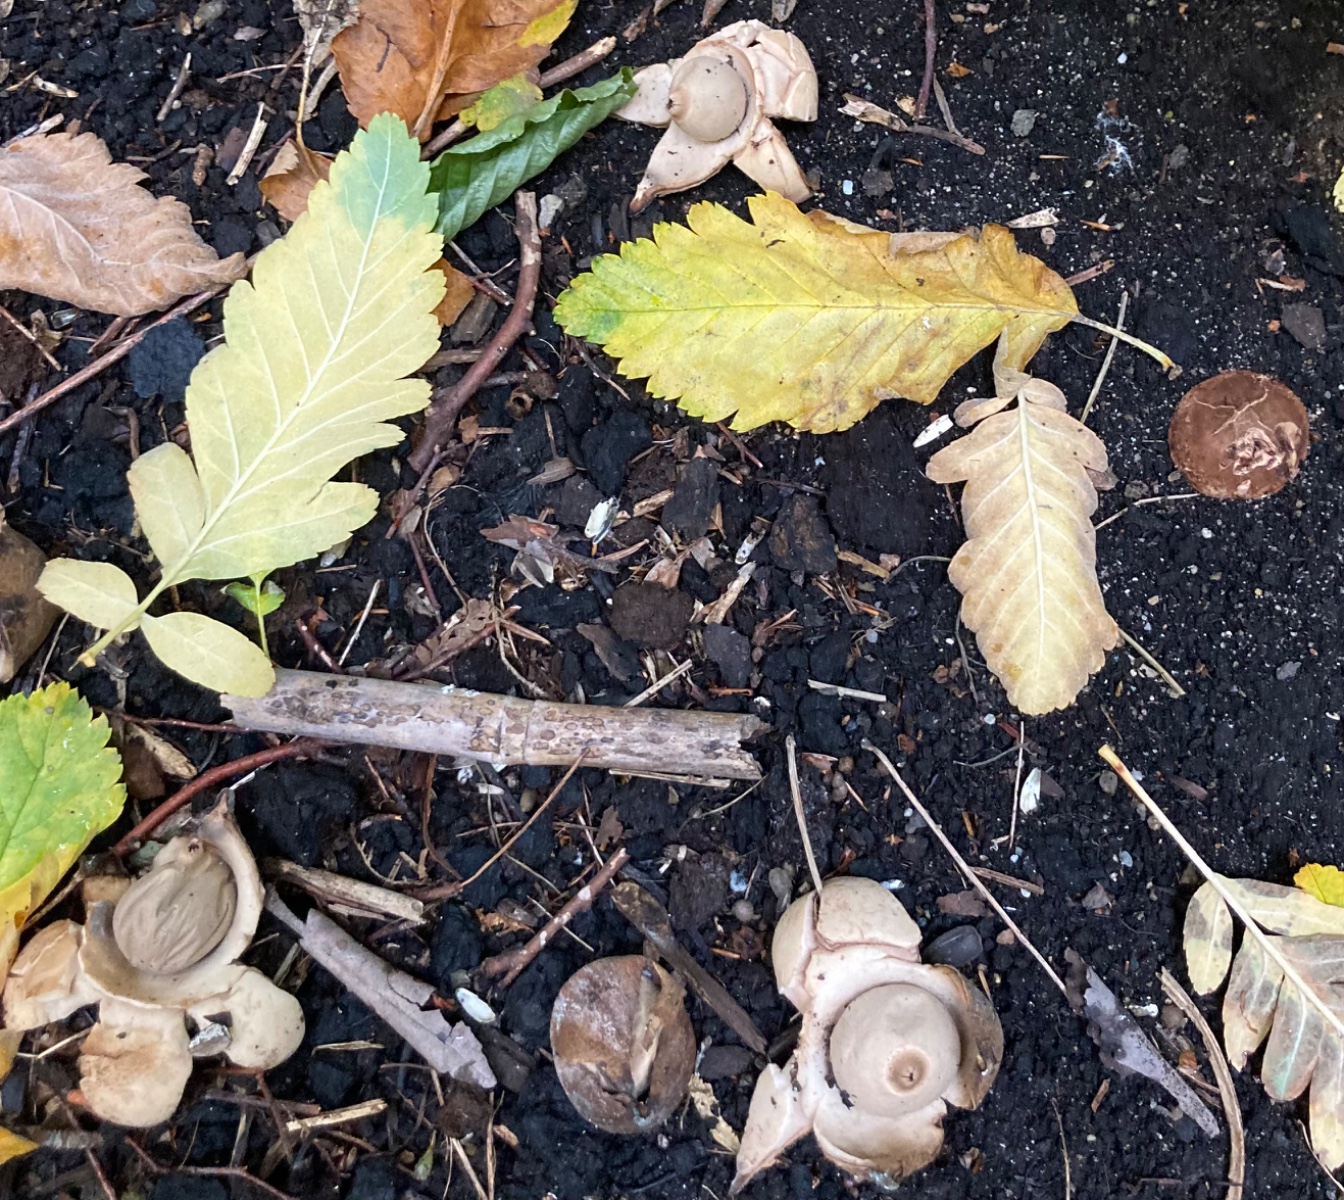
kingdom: Fungi
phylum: Basidiomycota
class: Agaricomycetes
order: Geastrales
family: Geastraceae
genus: Geastrum
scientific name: Geastrum michelianum
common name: kødet stjernebold
